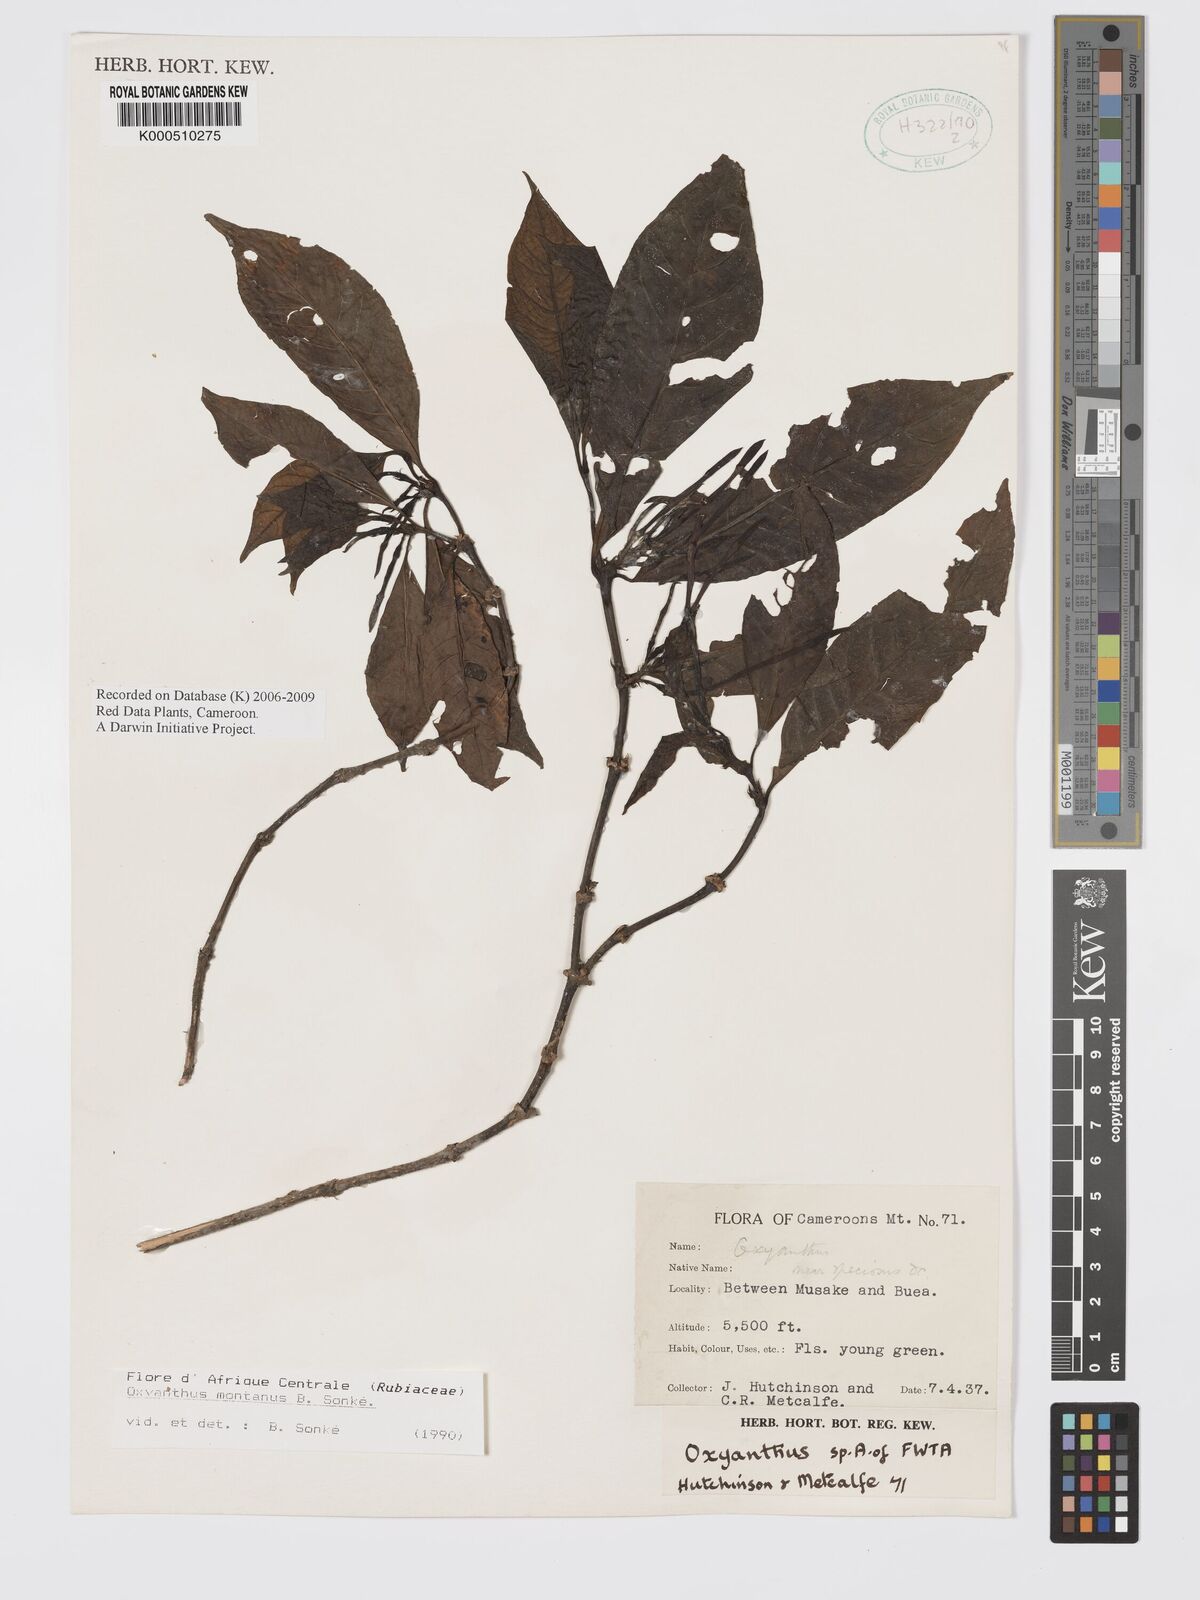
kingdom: Plantae
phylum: Tracheophyta
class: Magnoliopsida
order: Gentianales
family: Rubiaceae
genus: Oxyanthus
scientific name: Oxyanthus
